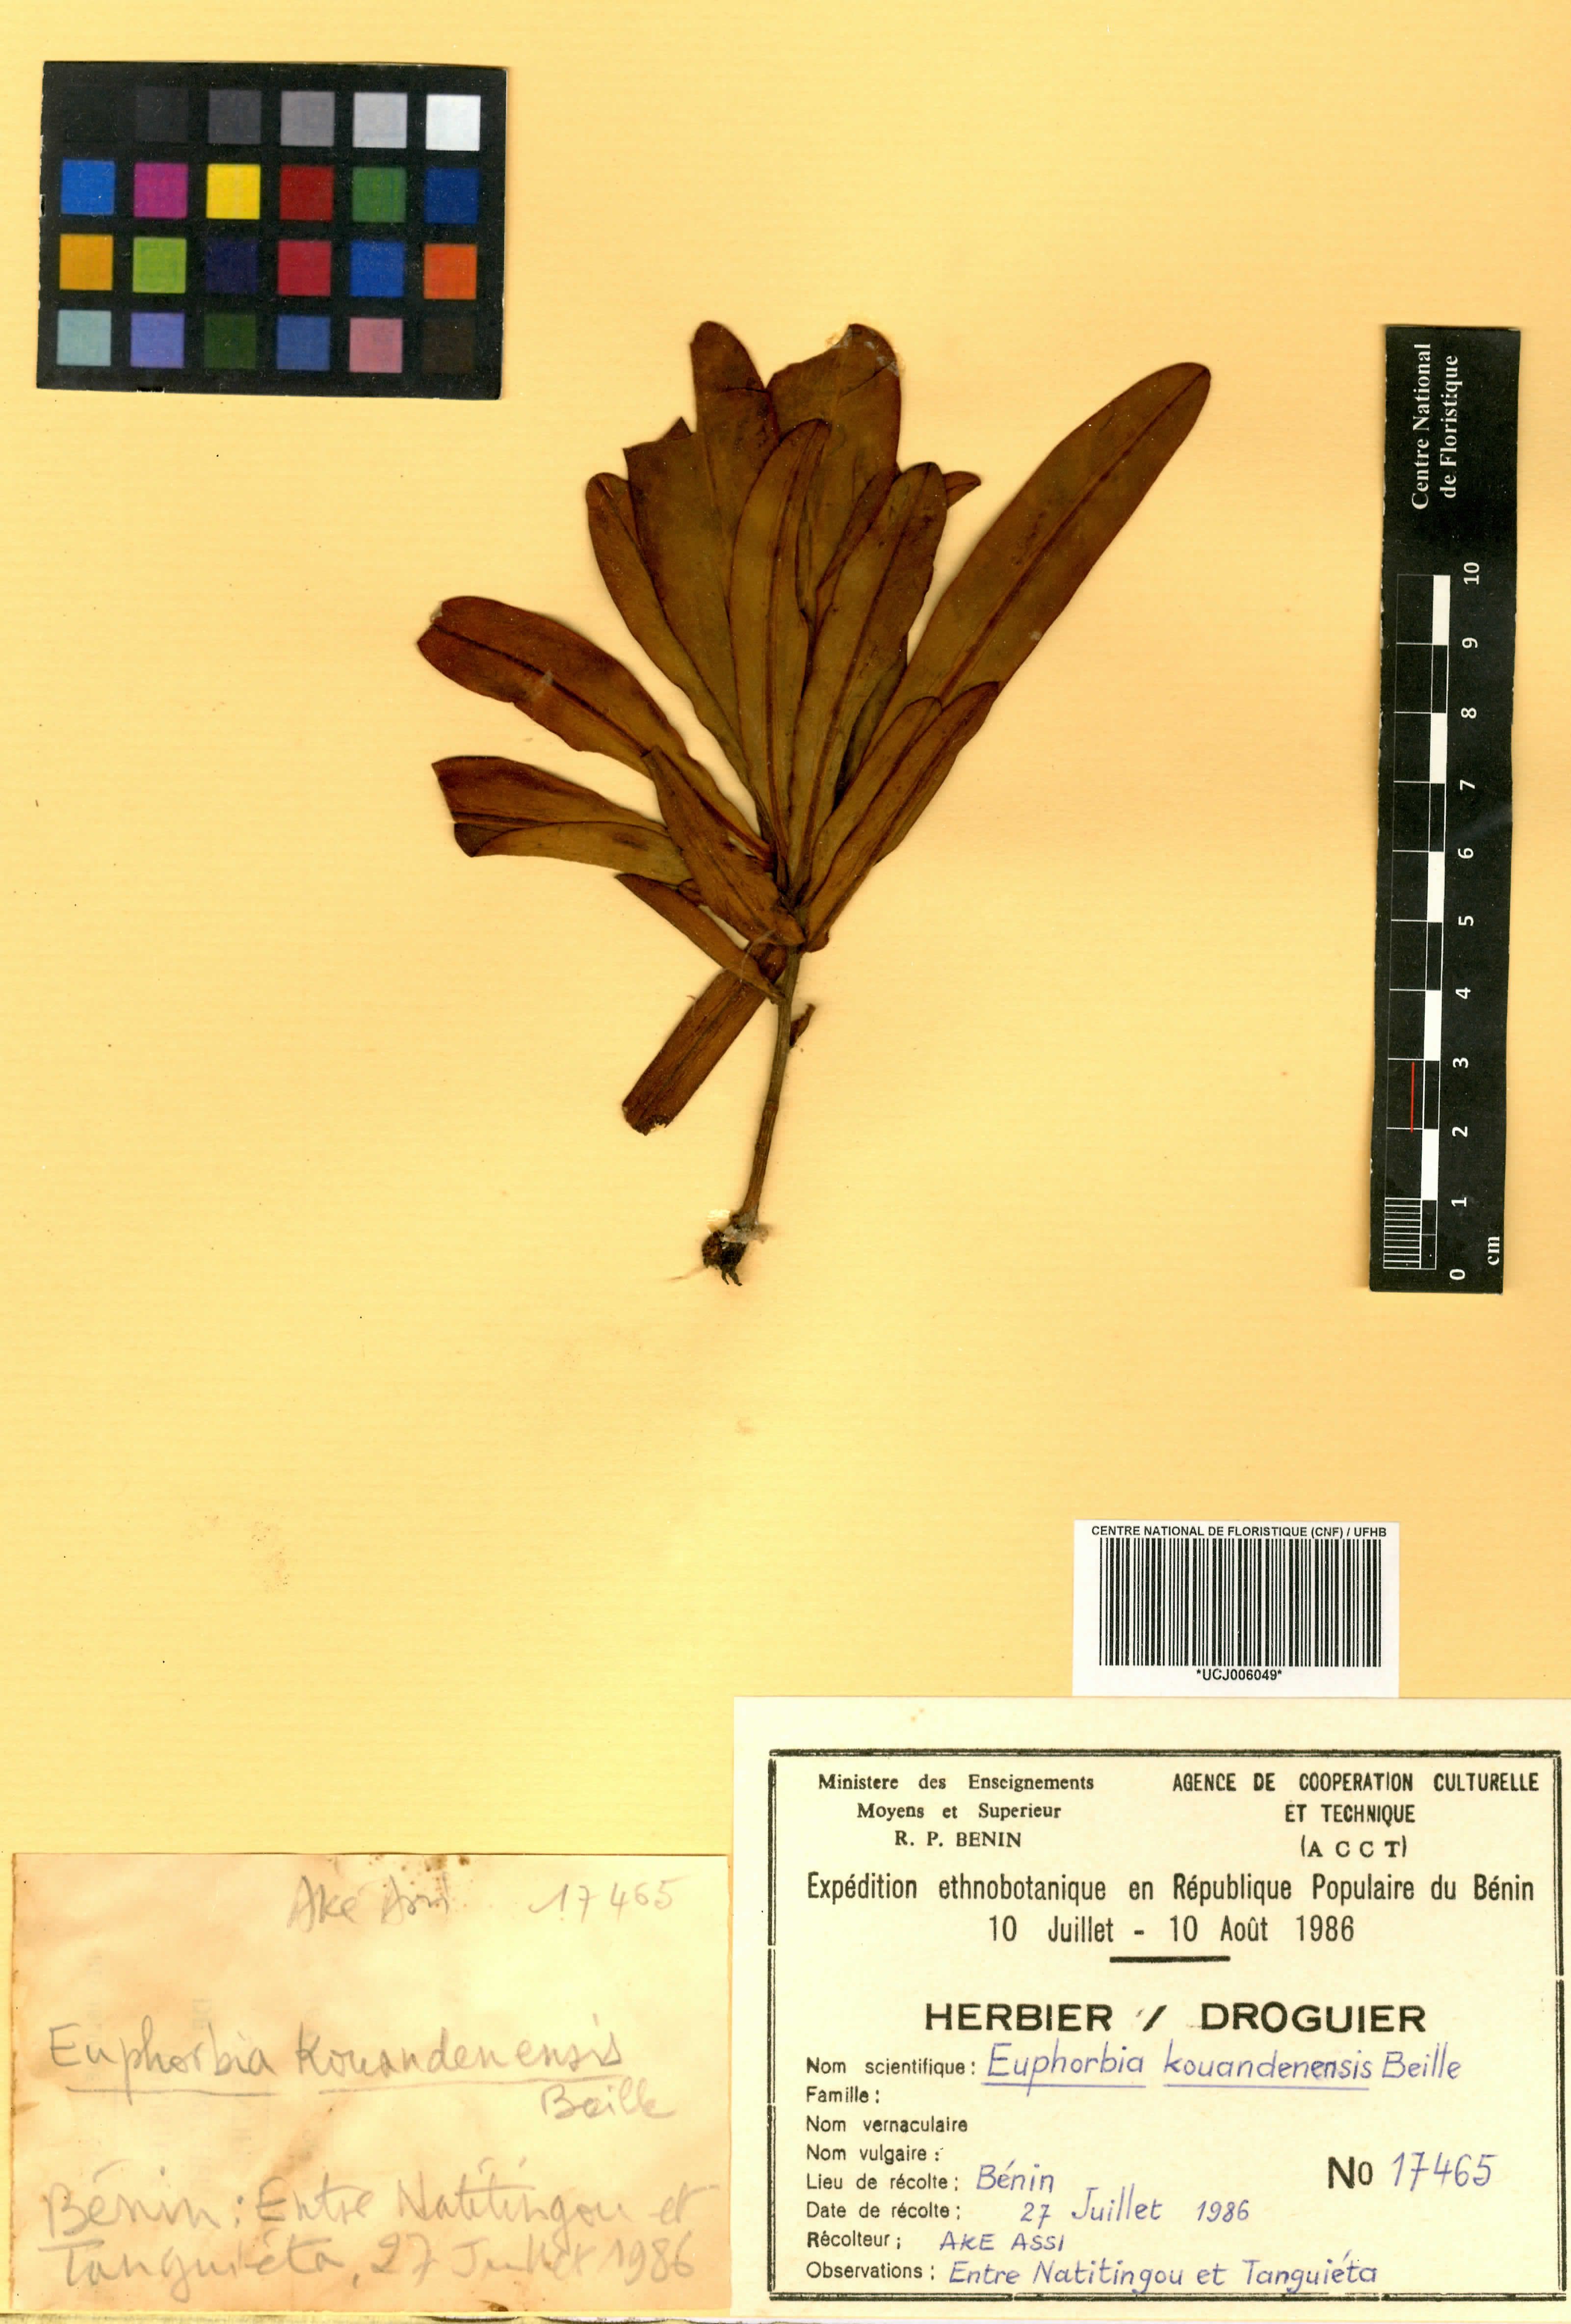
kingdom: Plantae
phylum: Tracheophyta
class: Magnoliopsida
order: Malpighiales
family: Euphorbiaceae
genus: Euphorbia
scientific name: Euphorbia kouandenensis
